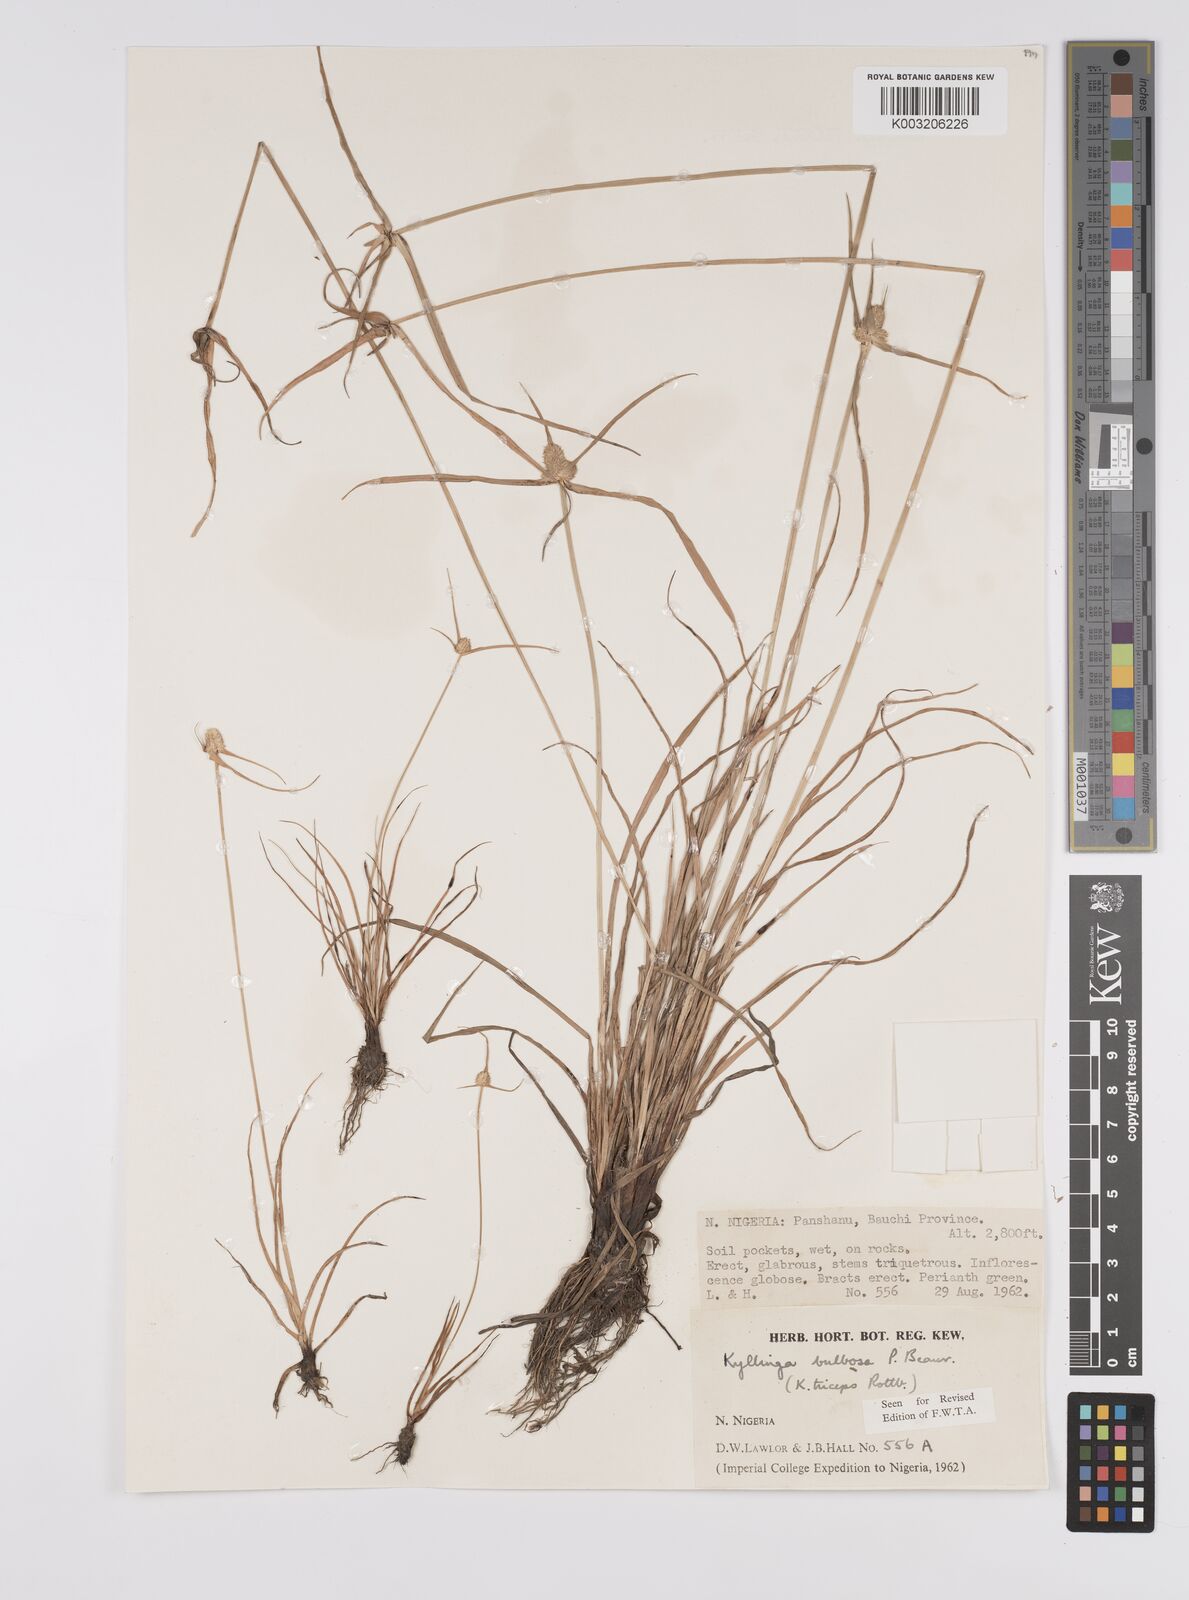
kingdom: Plantae
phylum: Tracheophyta
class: Liliopsida
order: Poales
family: Cyperaceae
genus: Cyperus
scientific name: Cyperus
